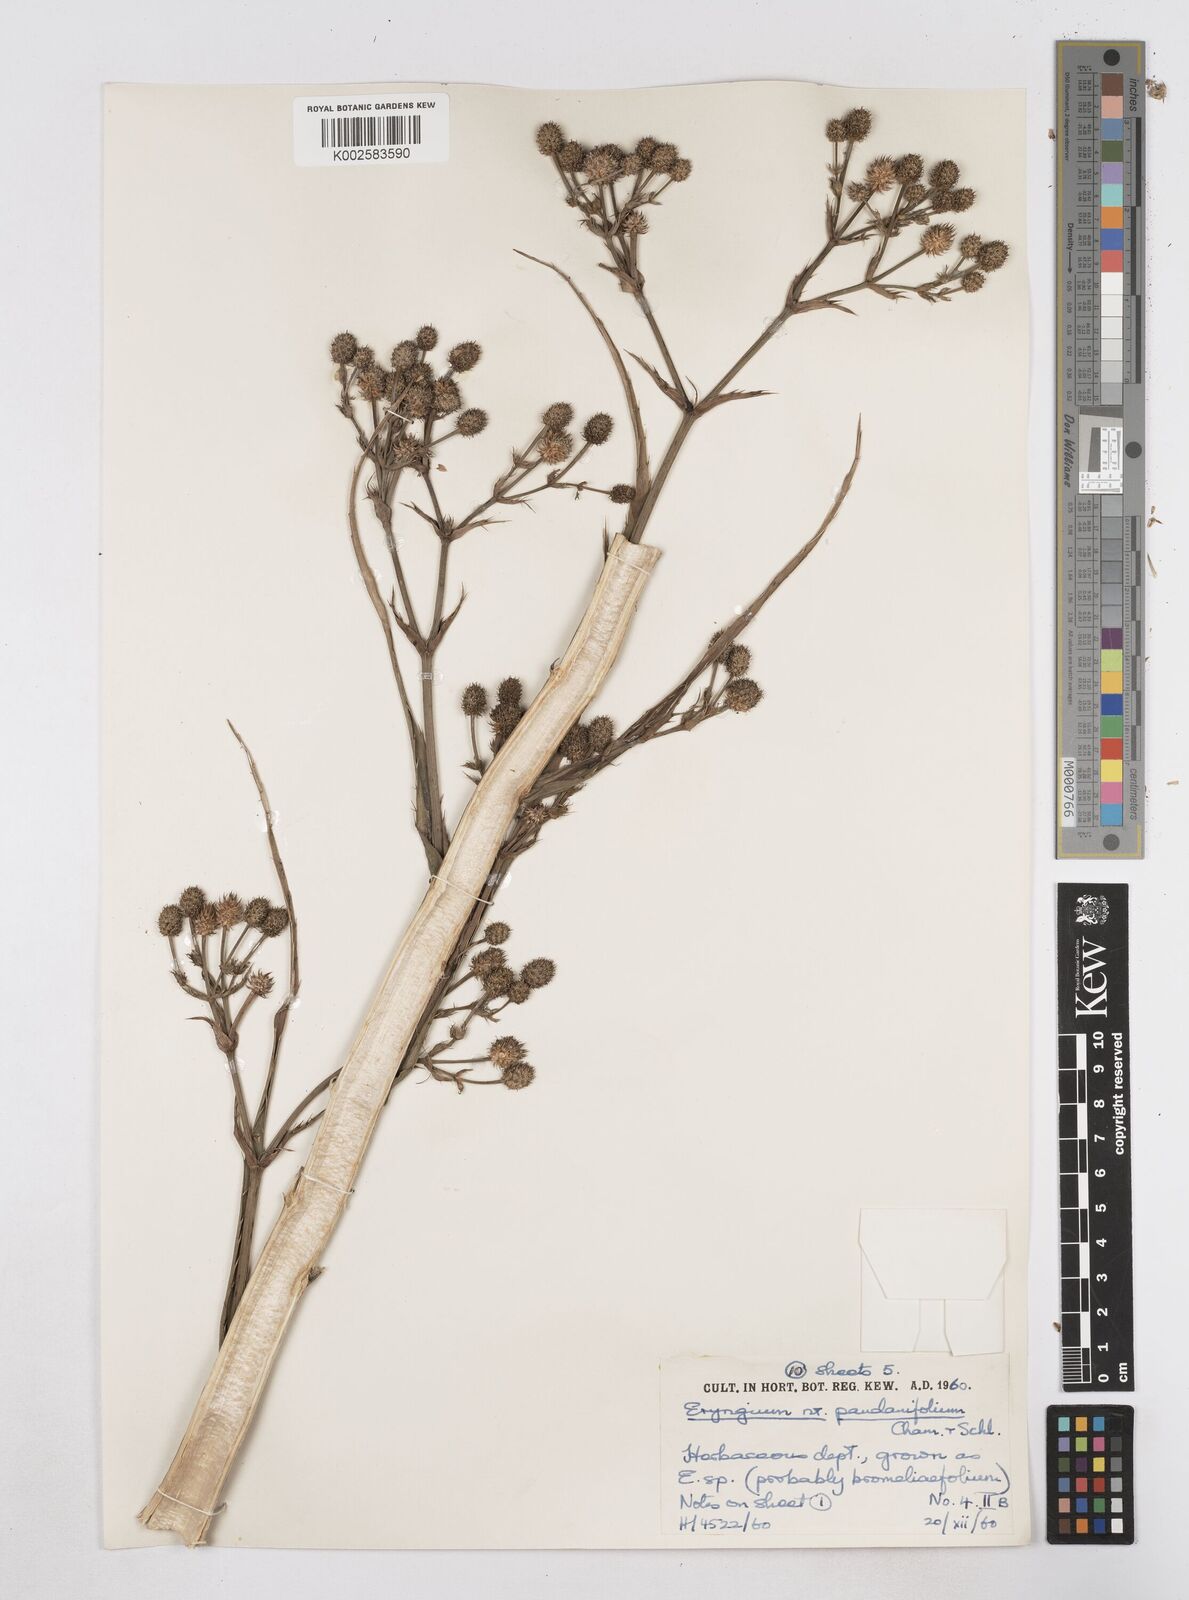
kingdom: Plantae
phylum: Tracheophyta
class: Magnoliopsida
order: Apiales
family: Apiaceae
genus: Eryngium
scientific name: Eryngium pandanifolium
